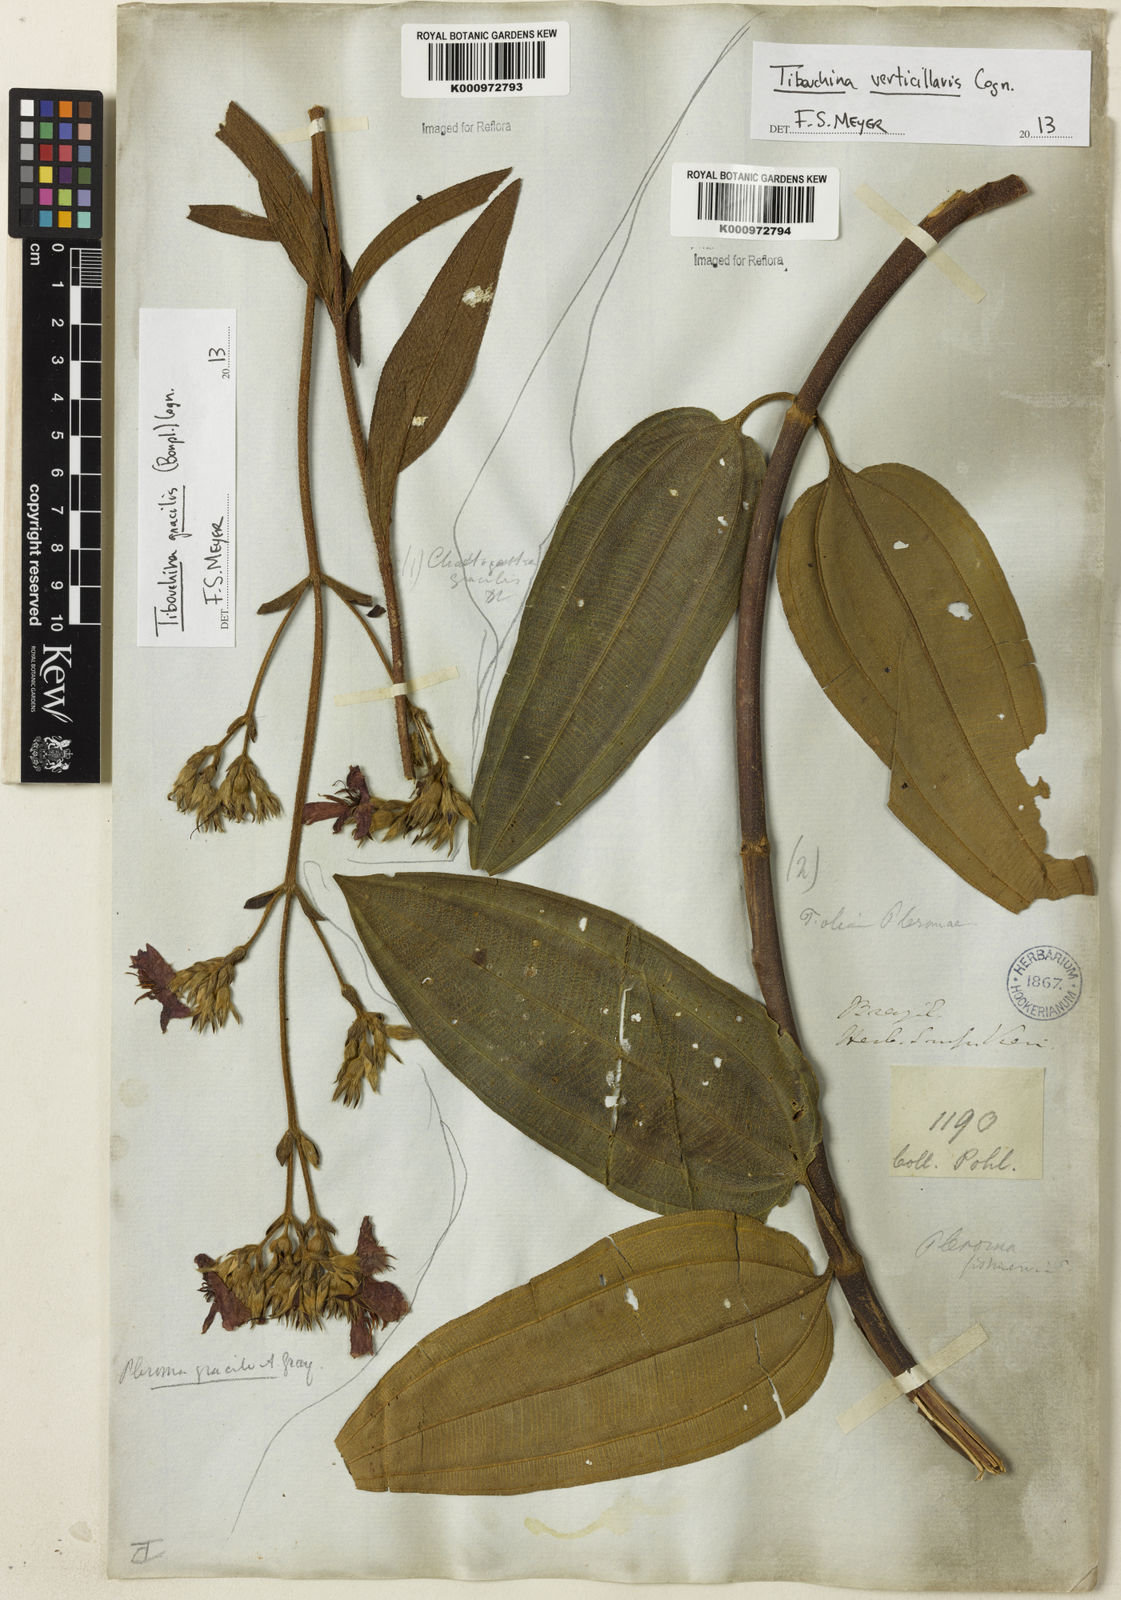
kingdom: Plantae
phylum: Tracheophyta
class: Magnoliopsida
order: Myrtales
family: Melastomataceae
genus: Chaetogastra
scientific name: Chaetogastra gracilis
